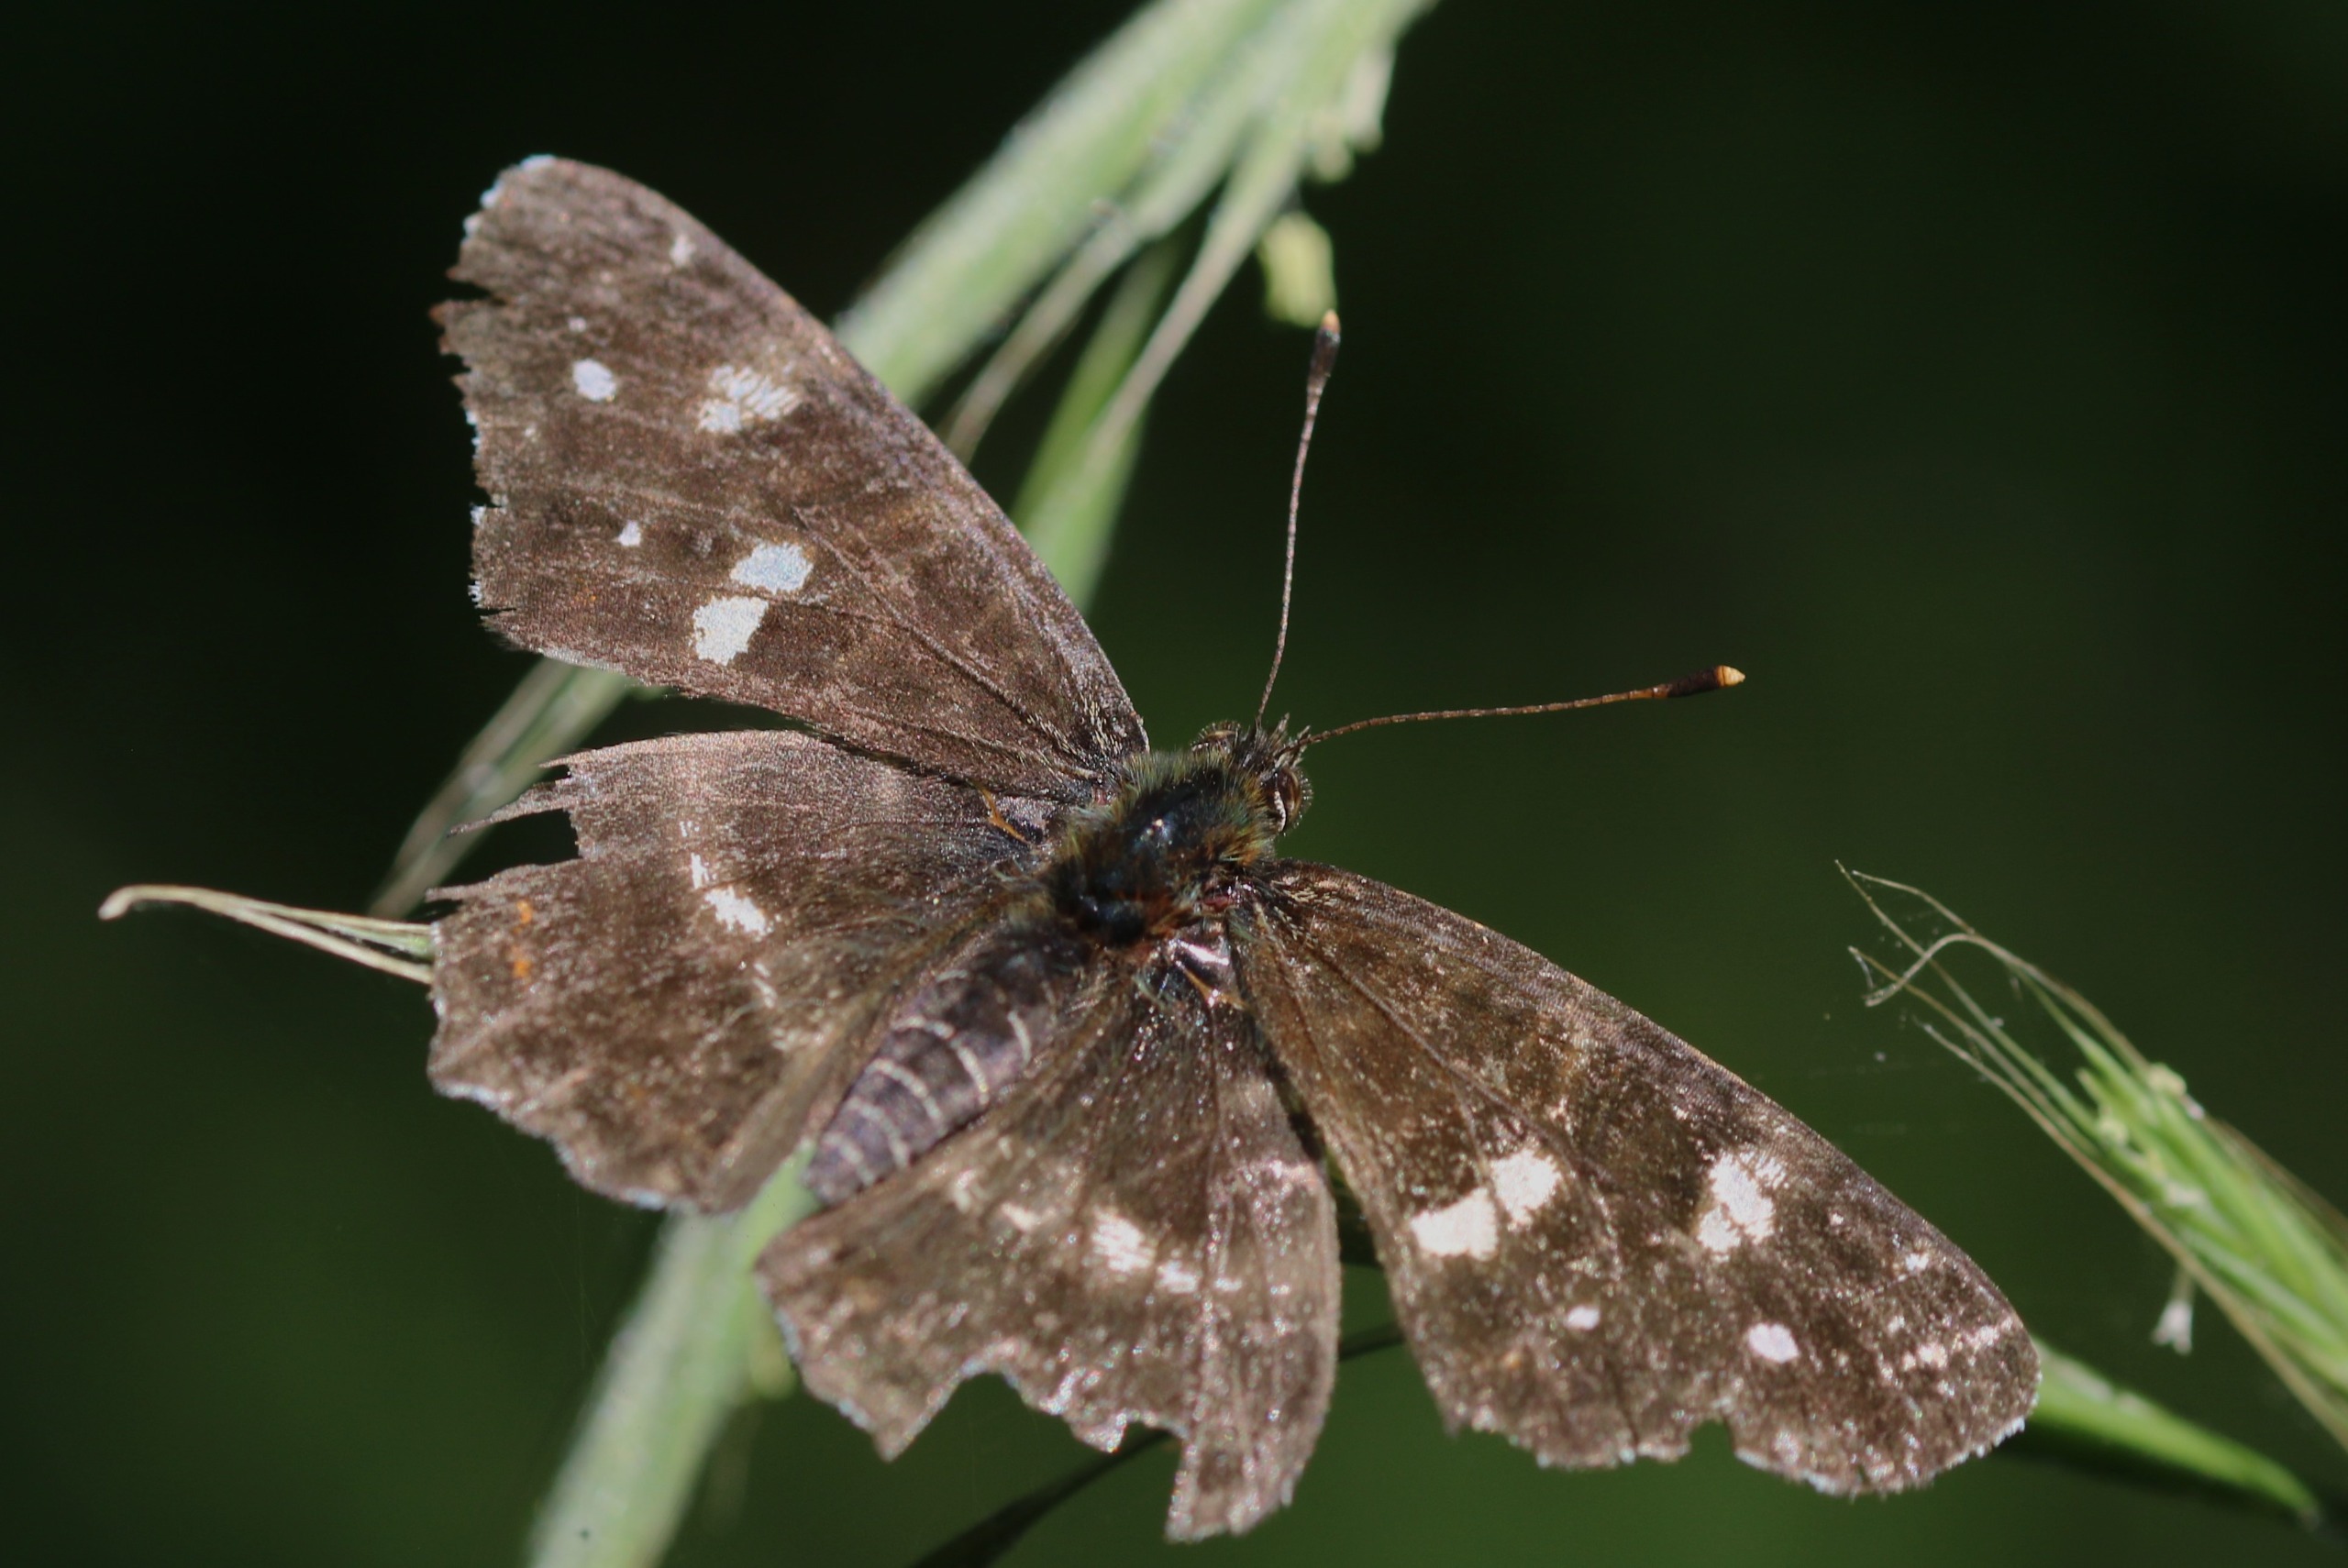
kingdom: Animalia
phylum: Arthropoda
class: Insecta
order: Lepidoptera
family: Nymphalidae
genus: Araschnia
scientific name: Araschnia levana
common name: Nældesommerfugl
